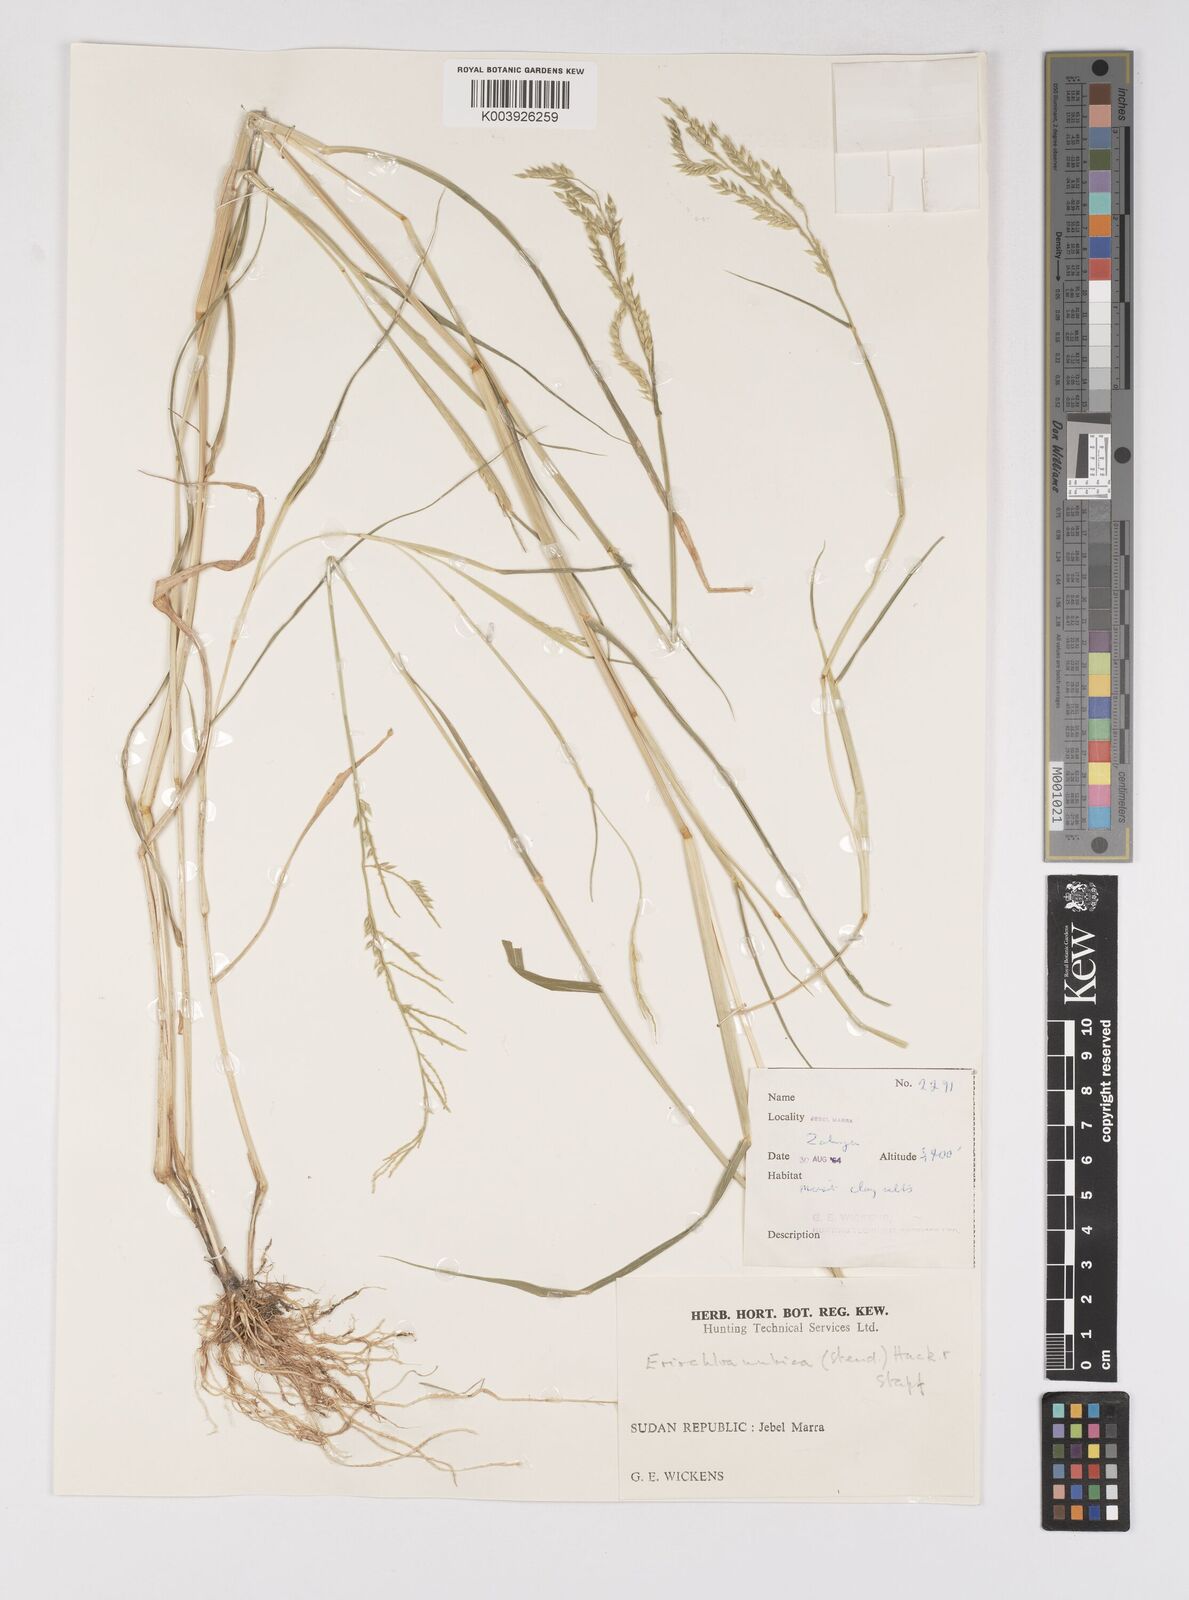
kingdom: Plantae
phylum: Tracheophyta
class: Liliopsida
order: Poales
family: Poaceae
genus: Eriochloa
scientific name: Eriochloa barbatus
